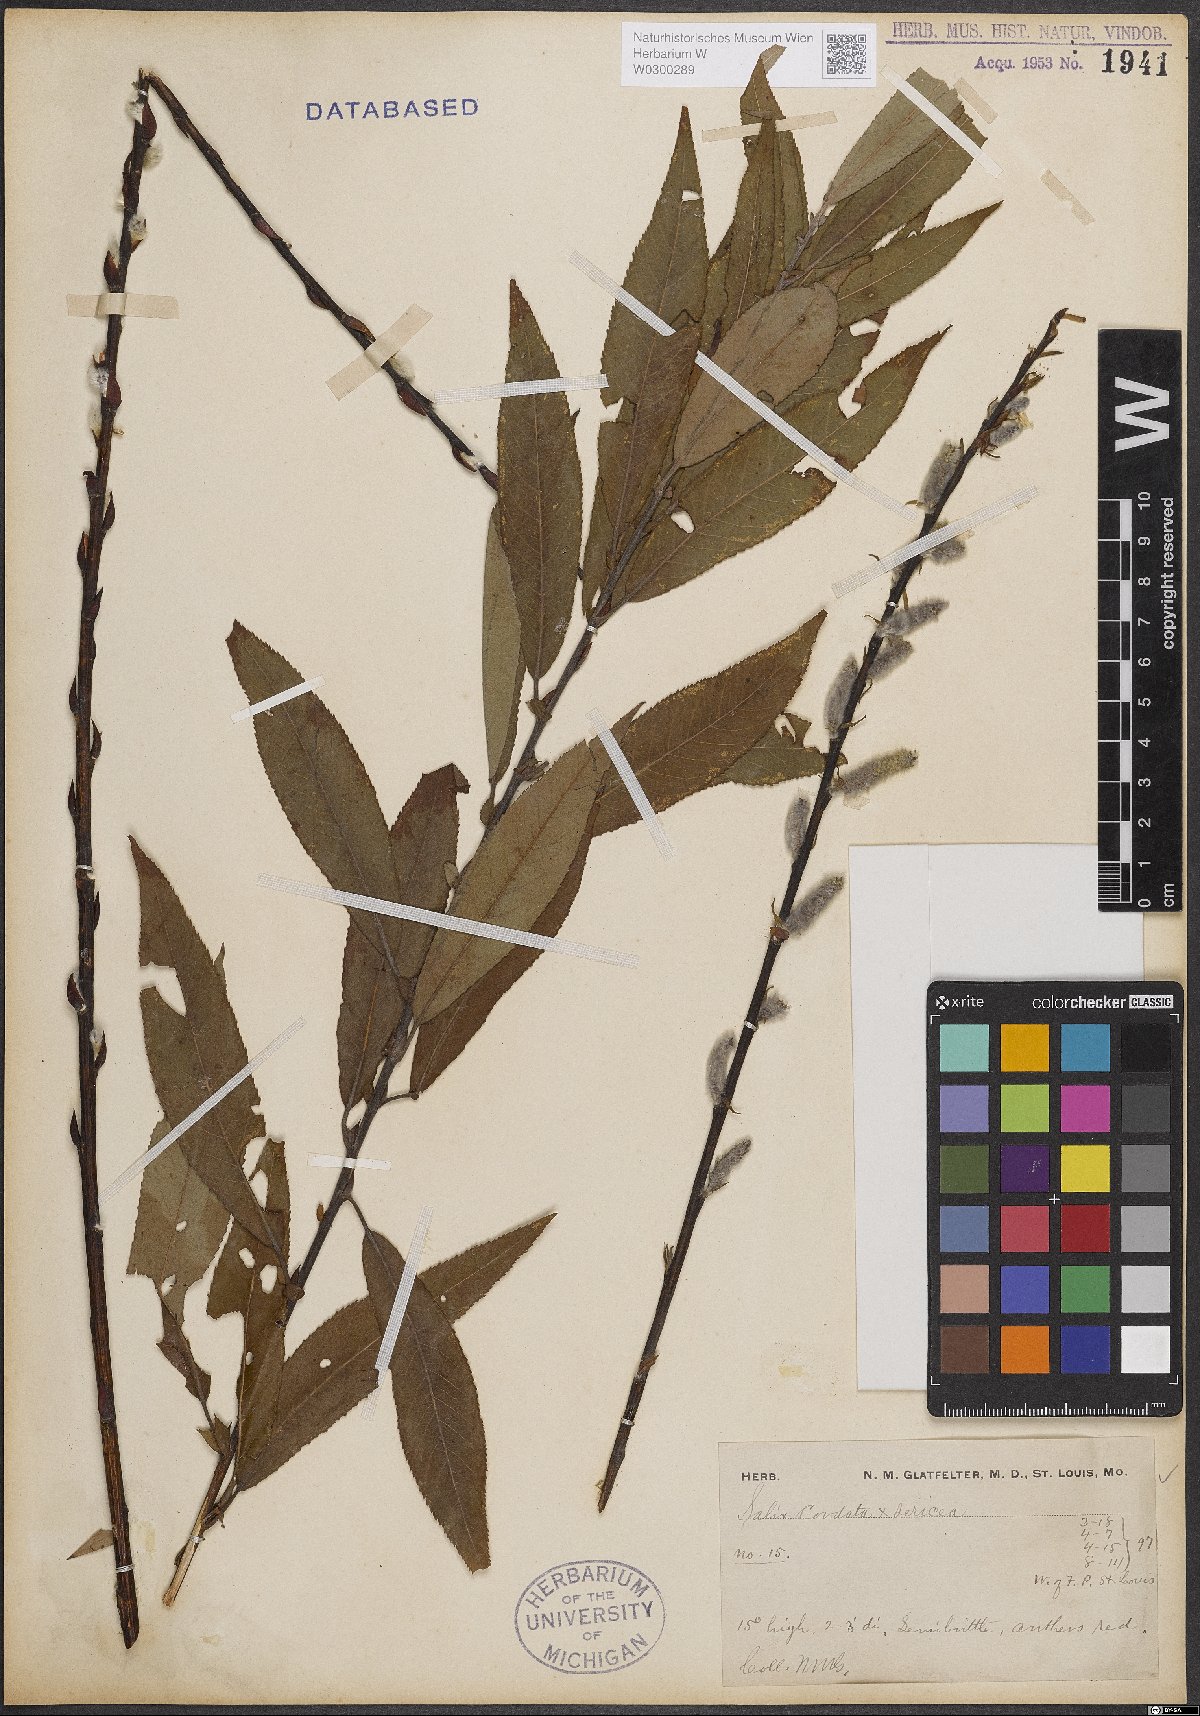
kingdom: Plantae
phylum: Tracheophyta
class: Magnoliopsida
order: Malpighiales
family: Salicaceae
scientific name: Salicaceae
